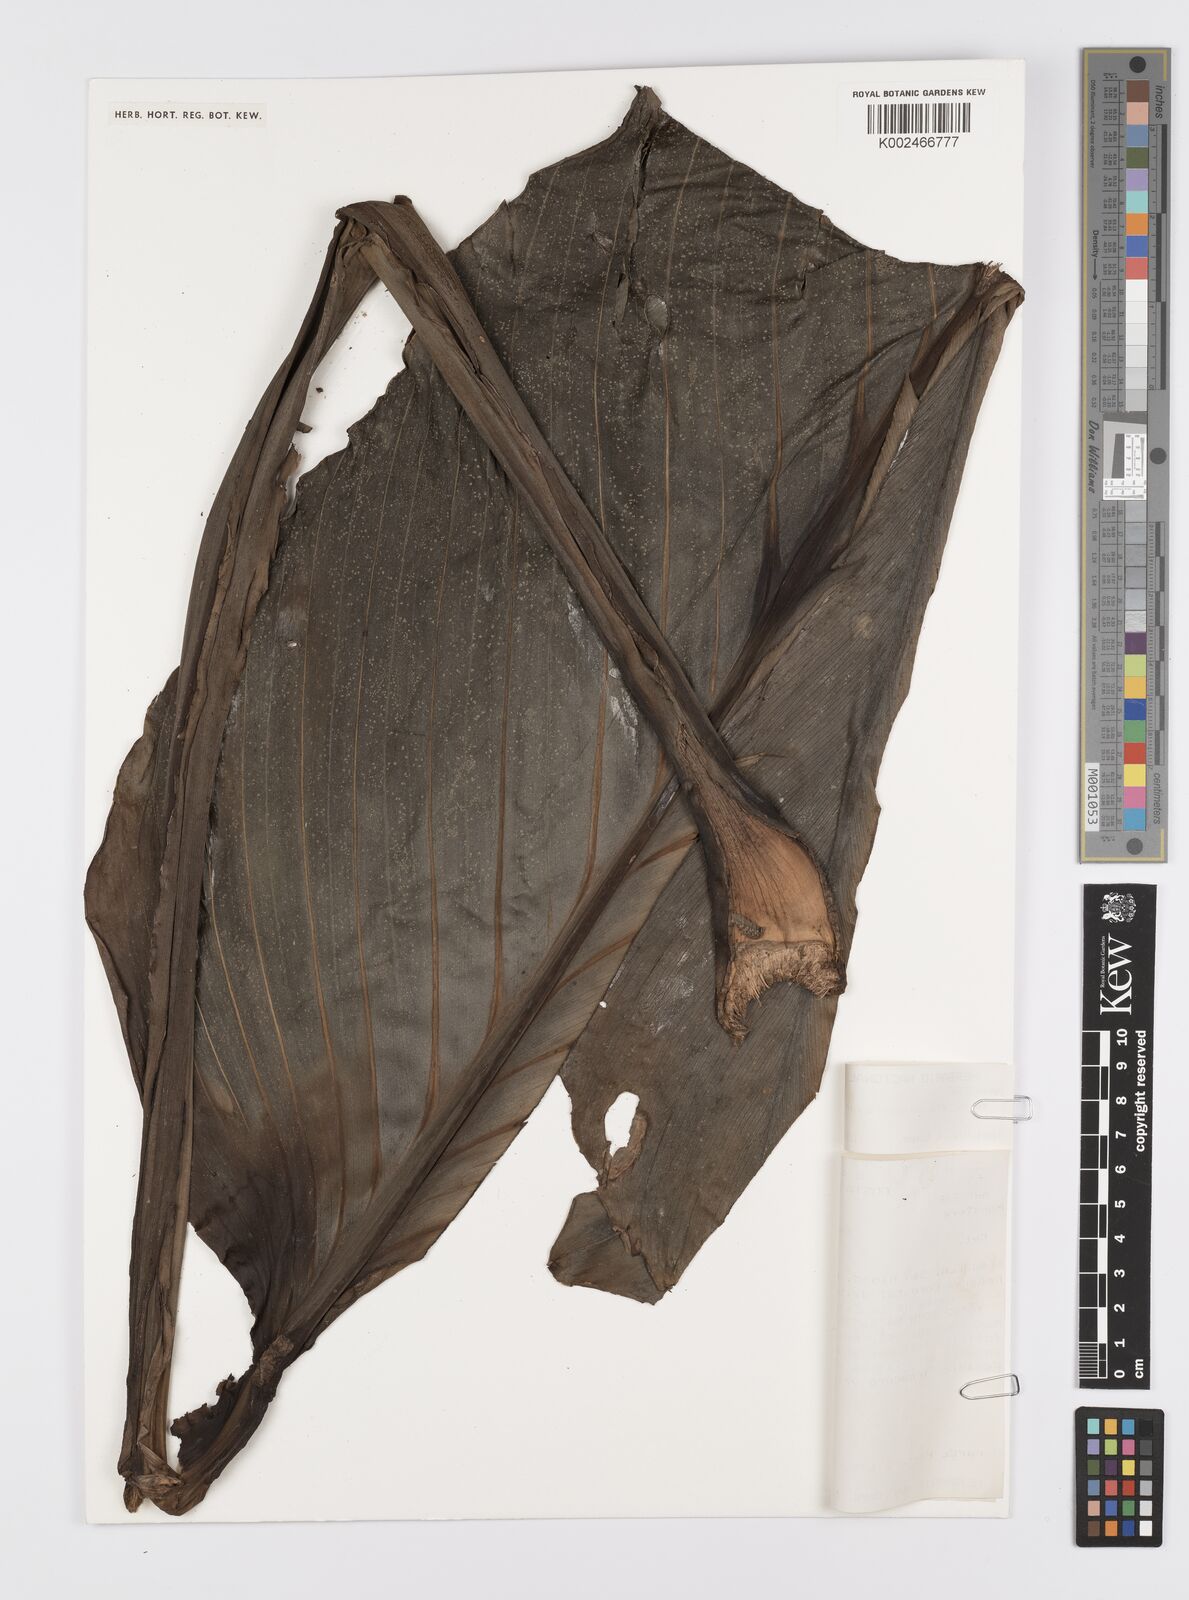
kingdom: Plantae
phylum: Tracheophyta
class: Liliopsida
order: Alismatales
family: Araceae
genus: Monstera
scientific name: Monstera standleyana
